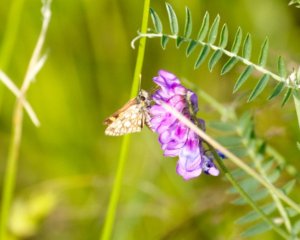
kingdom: Animalia
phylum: Arthropoda
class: Insecta
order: Lepidoptera
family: Hesperiidae
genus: Carterocephalus
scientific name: Carterocephalus palaemon
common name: Chequered Skipper
